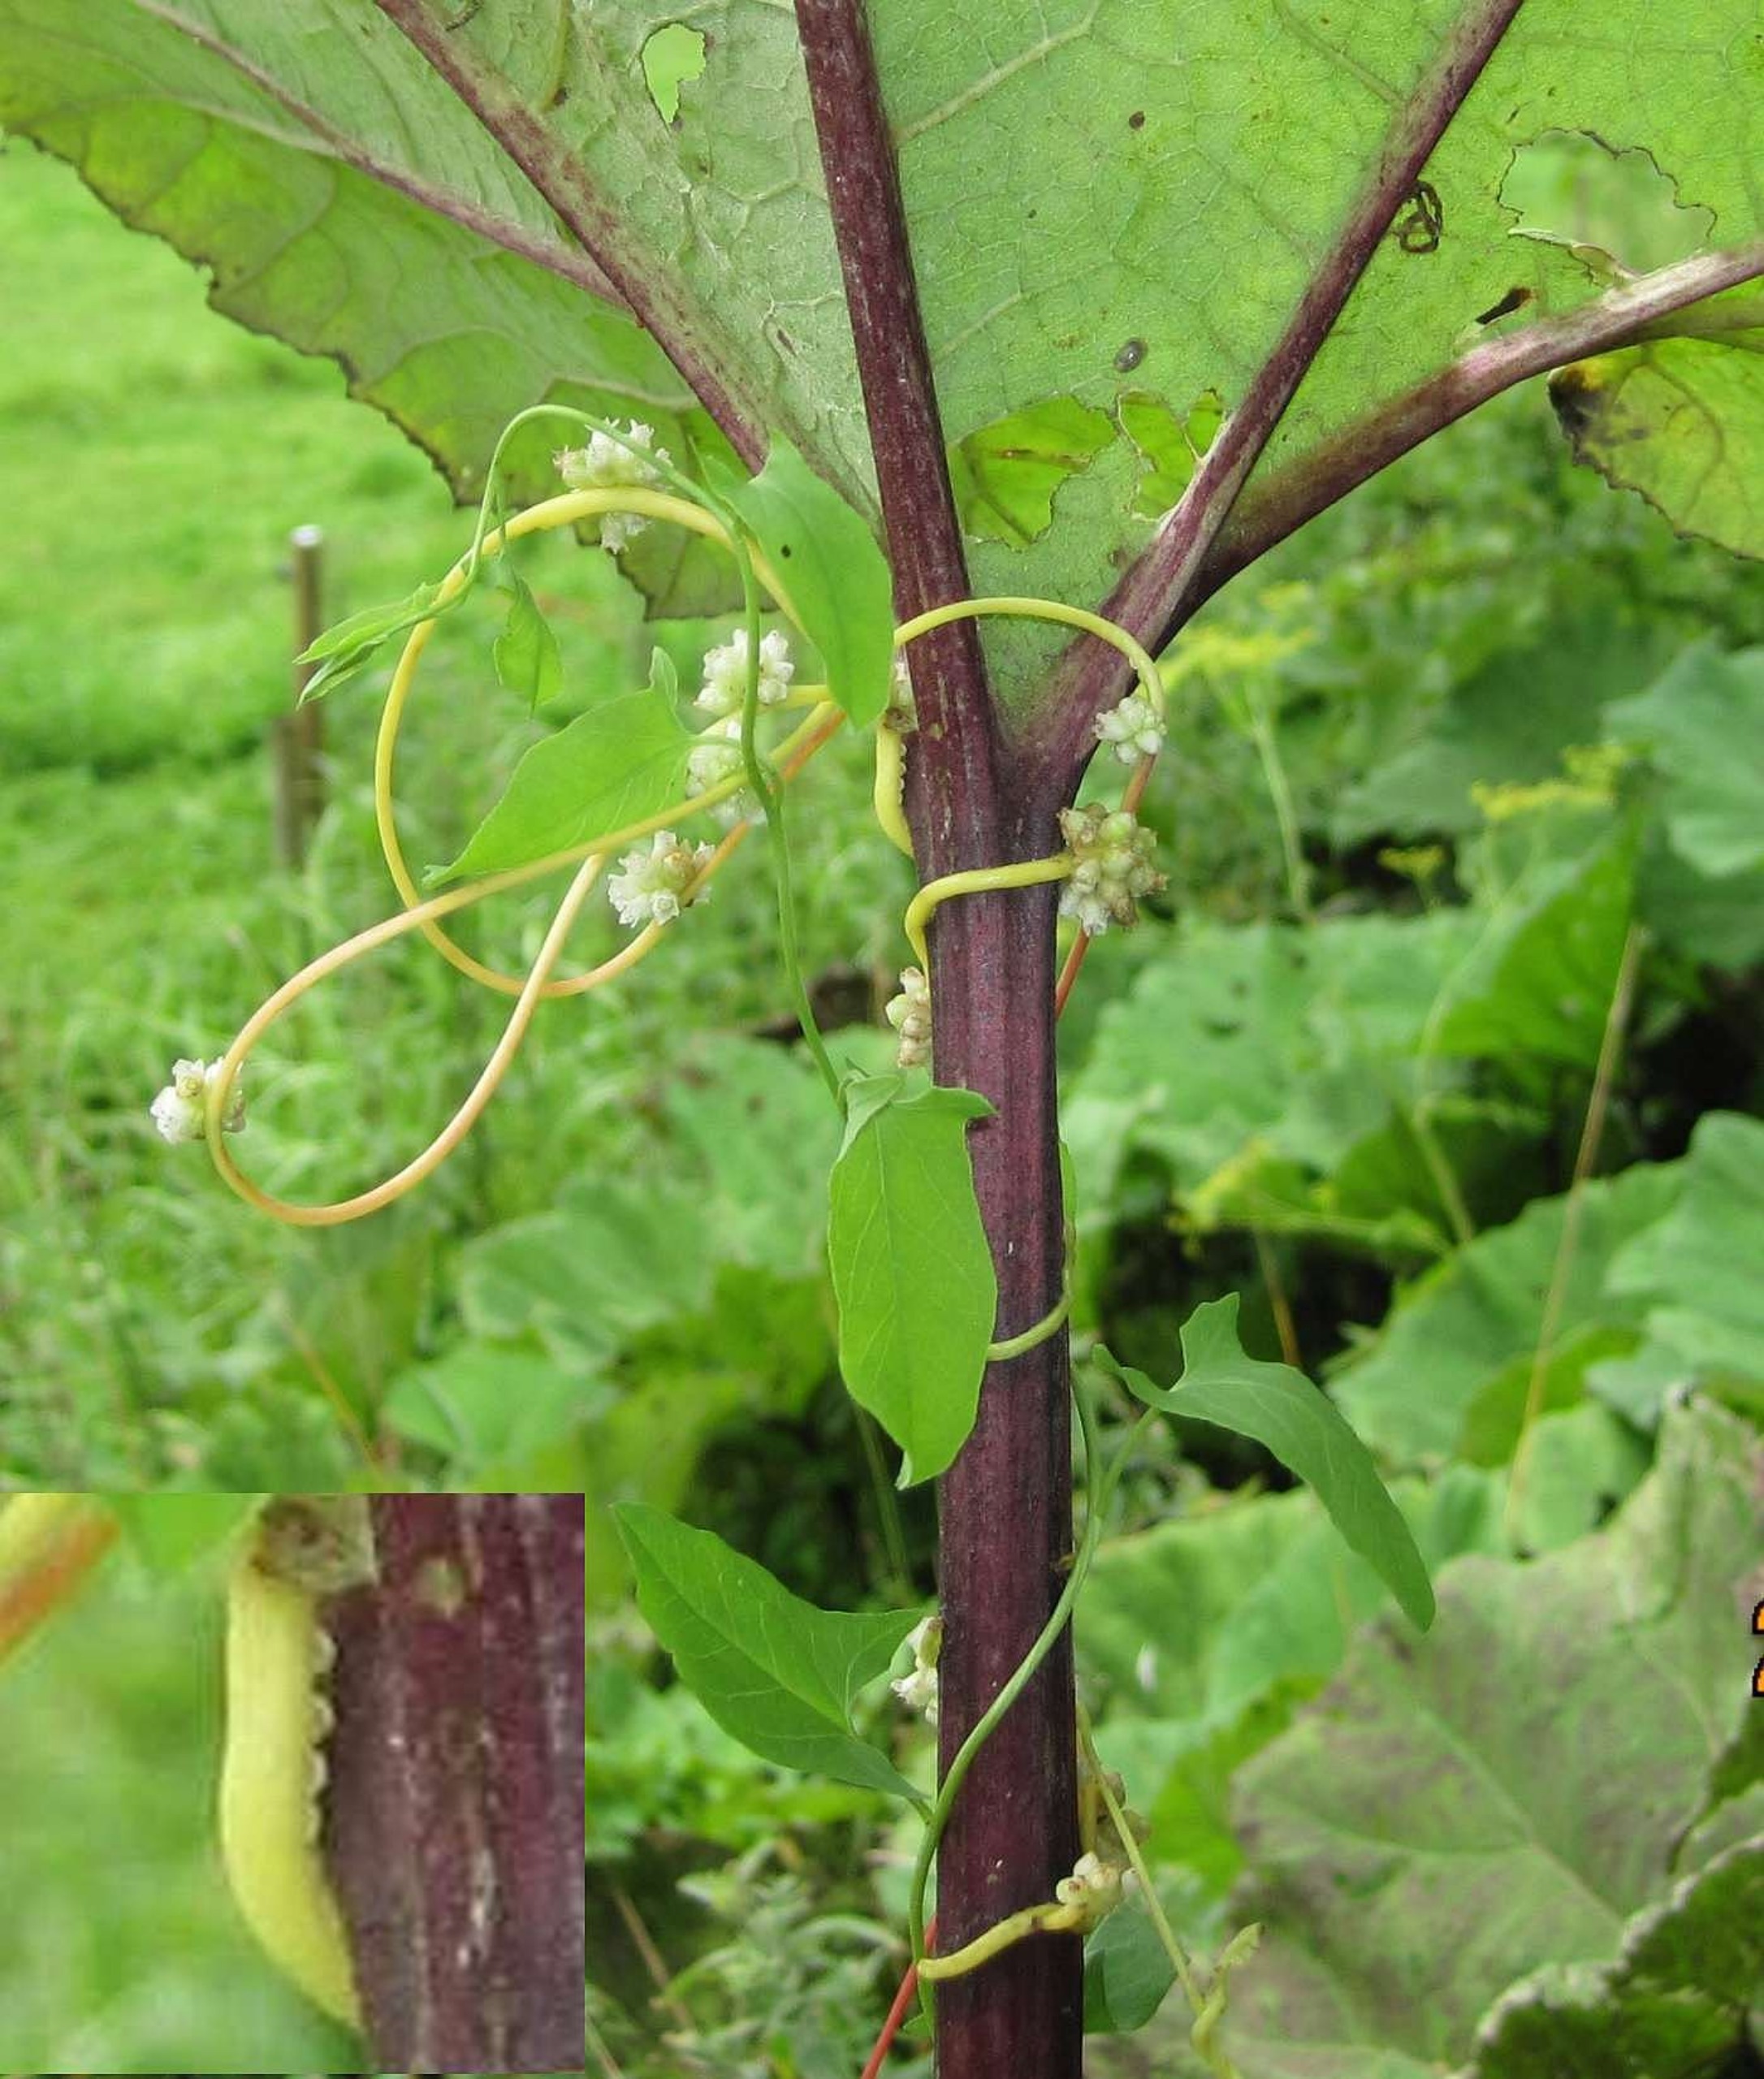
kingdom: Plantae
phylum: Tracheophyta
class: Magnoliopsida
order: Solanales
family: Convolvulaceae
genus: Cuscuta
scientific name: Cuscuta europaea
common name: Nælde-silke
